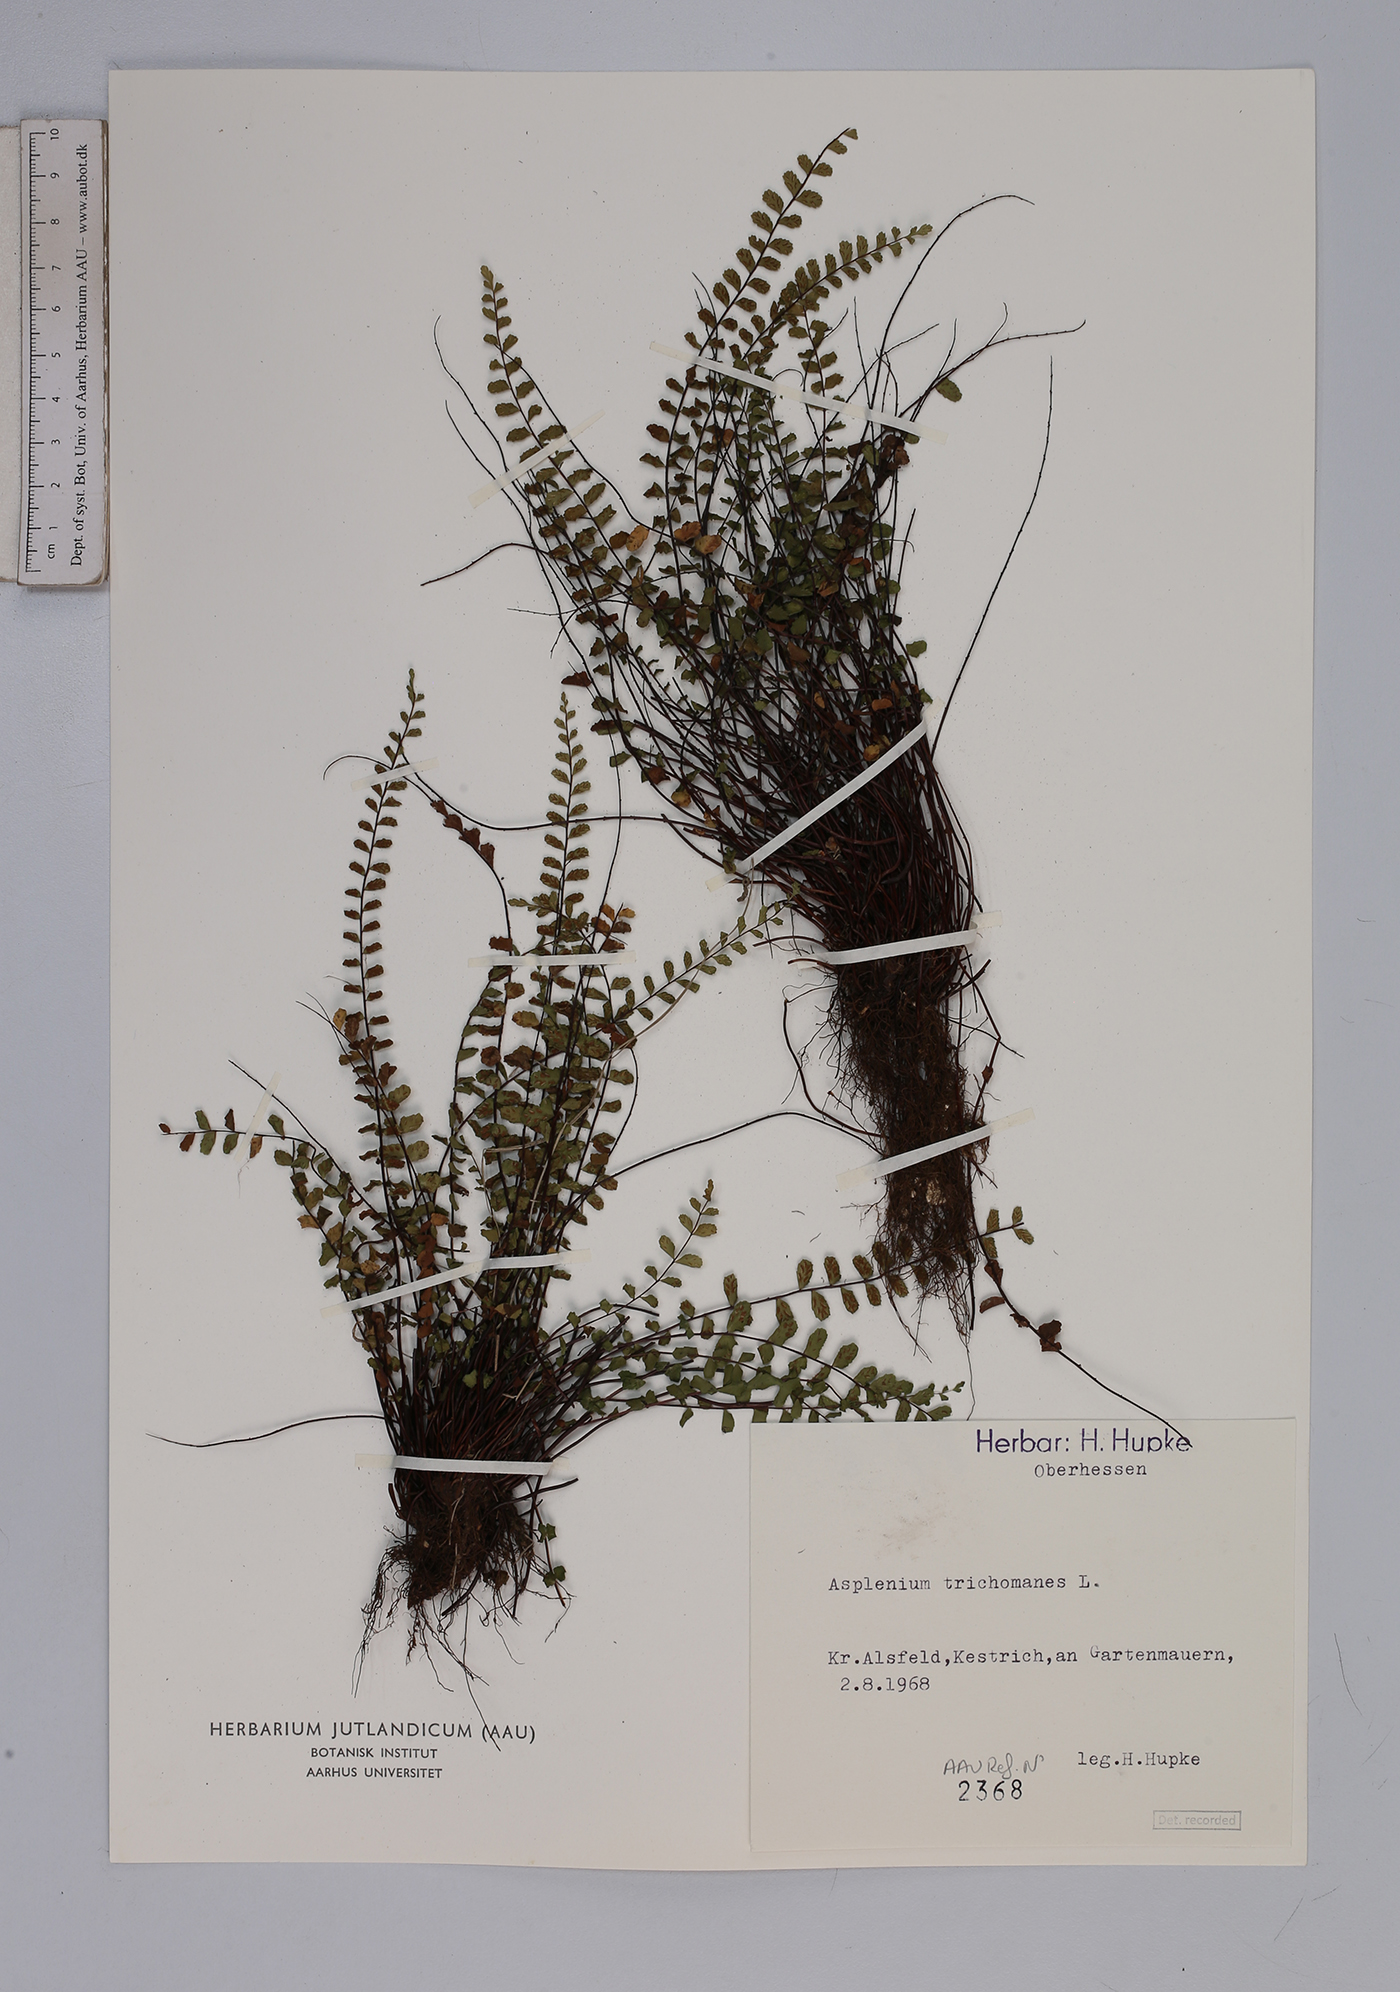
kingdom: Plantae
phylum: Tracheophyta
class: Polypodiopsida
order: Polypodiales
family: Aspleniaceae
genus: Asplenium
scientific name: Asplenium trichomanes
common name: Maidenhair spleenwort
